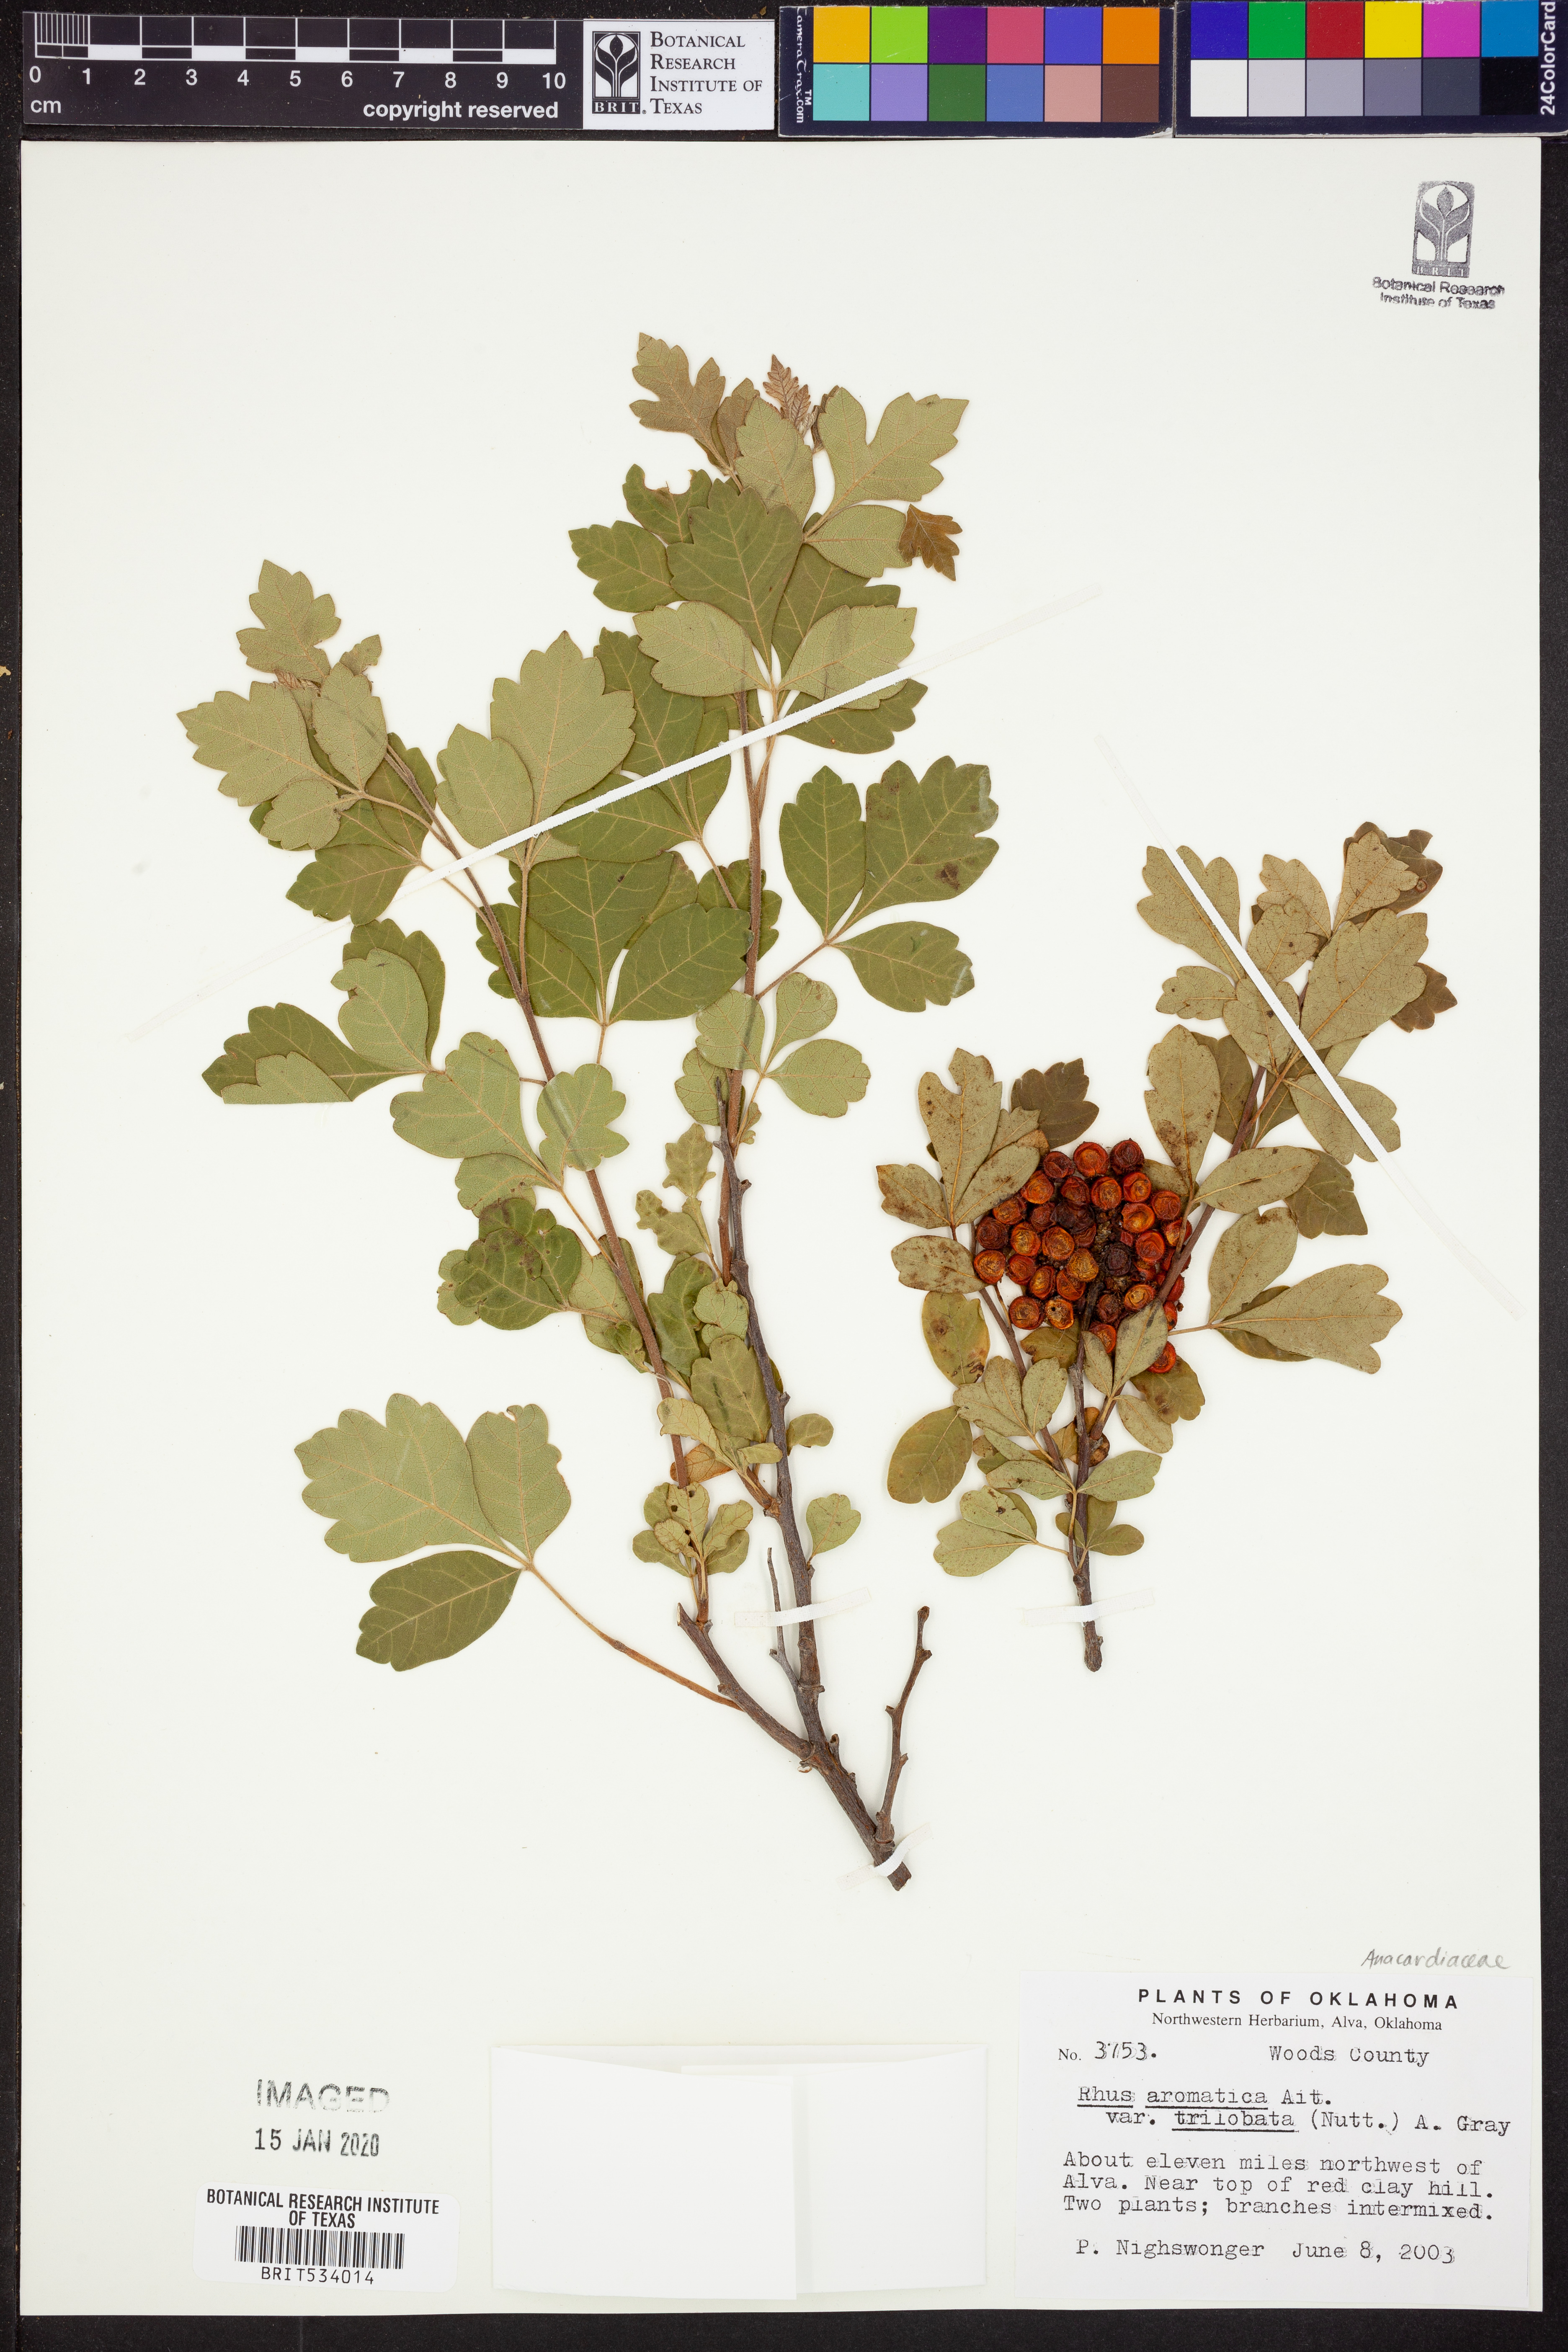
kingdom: Plantae
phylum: Tracheophyta
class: Magnoliopsida
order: Sapindales
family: Anacardiaceae
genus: Rhus
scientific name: Rhus trilobata
